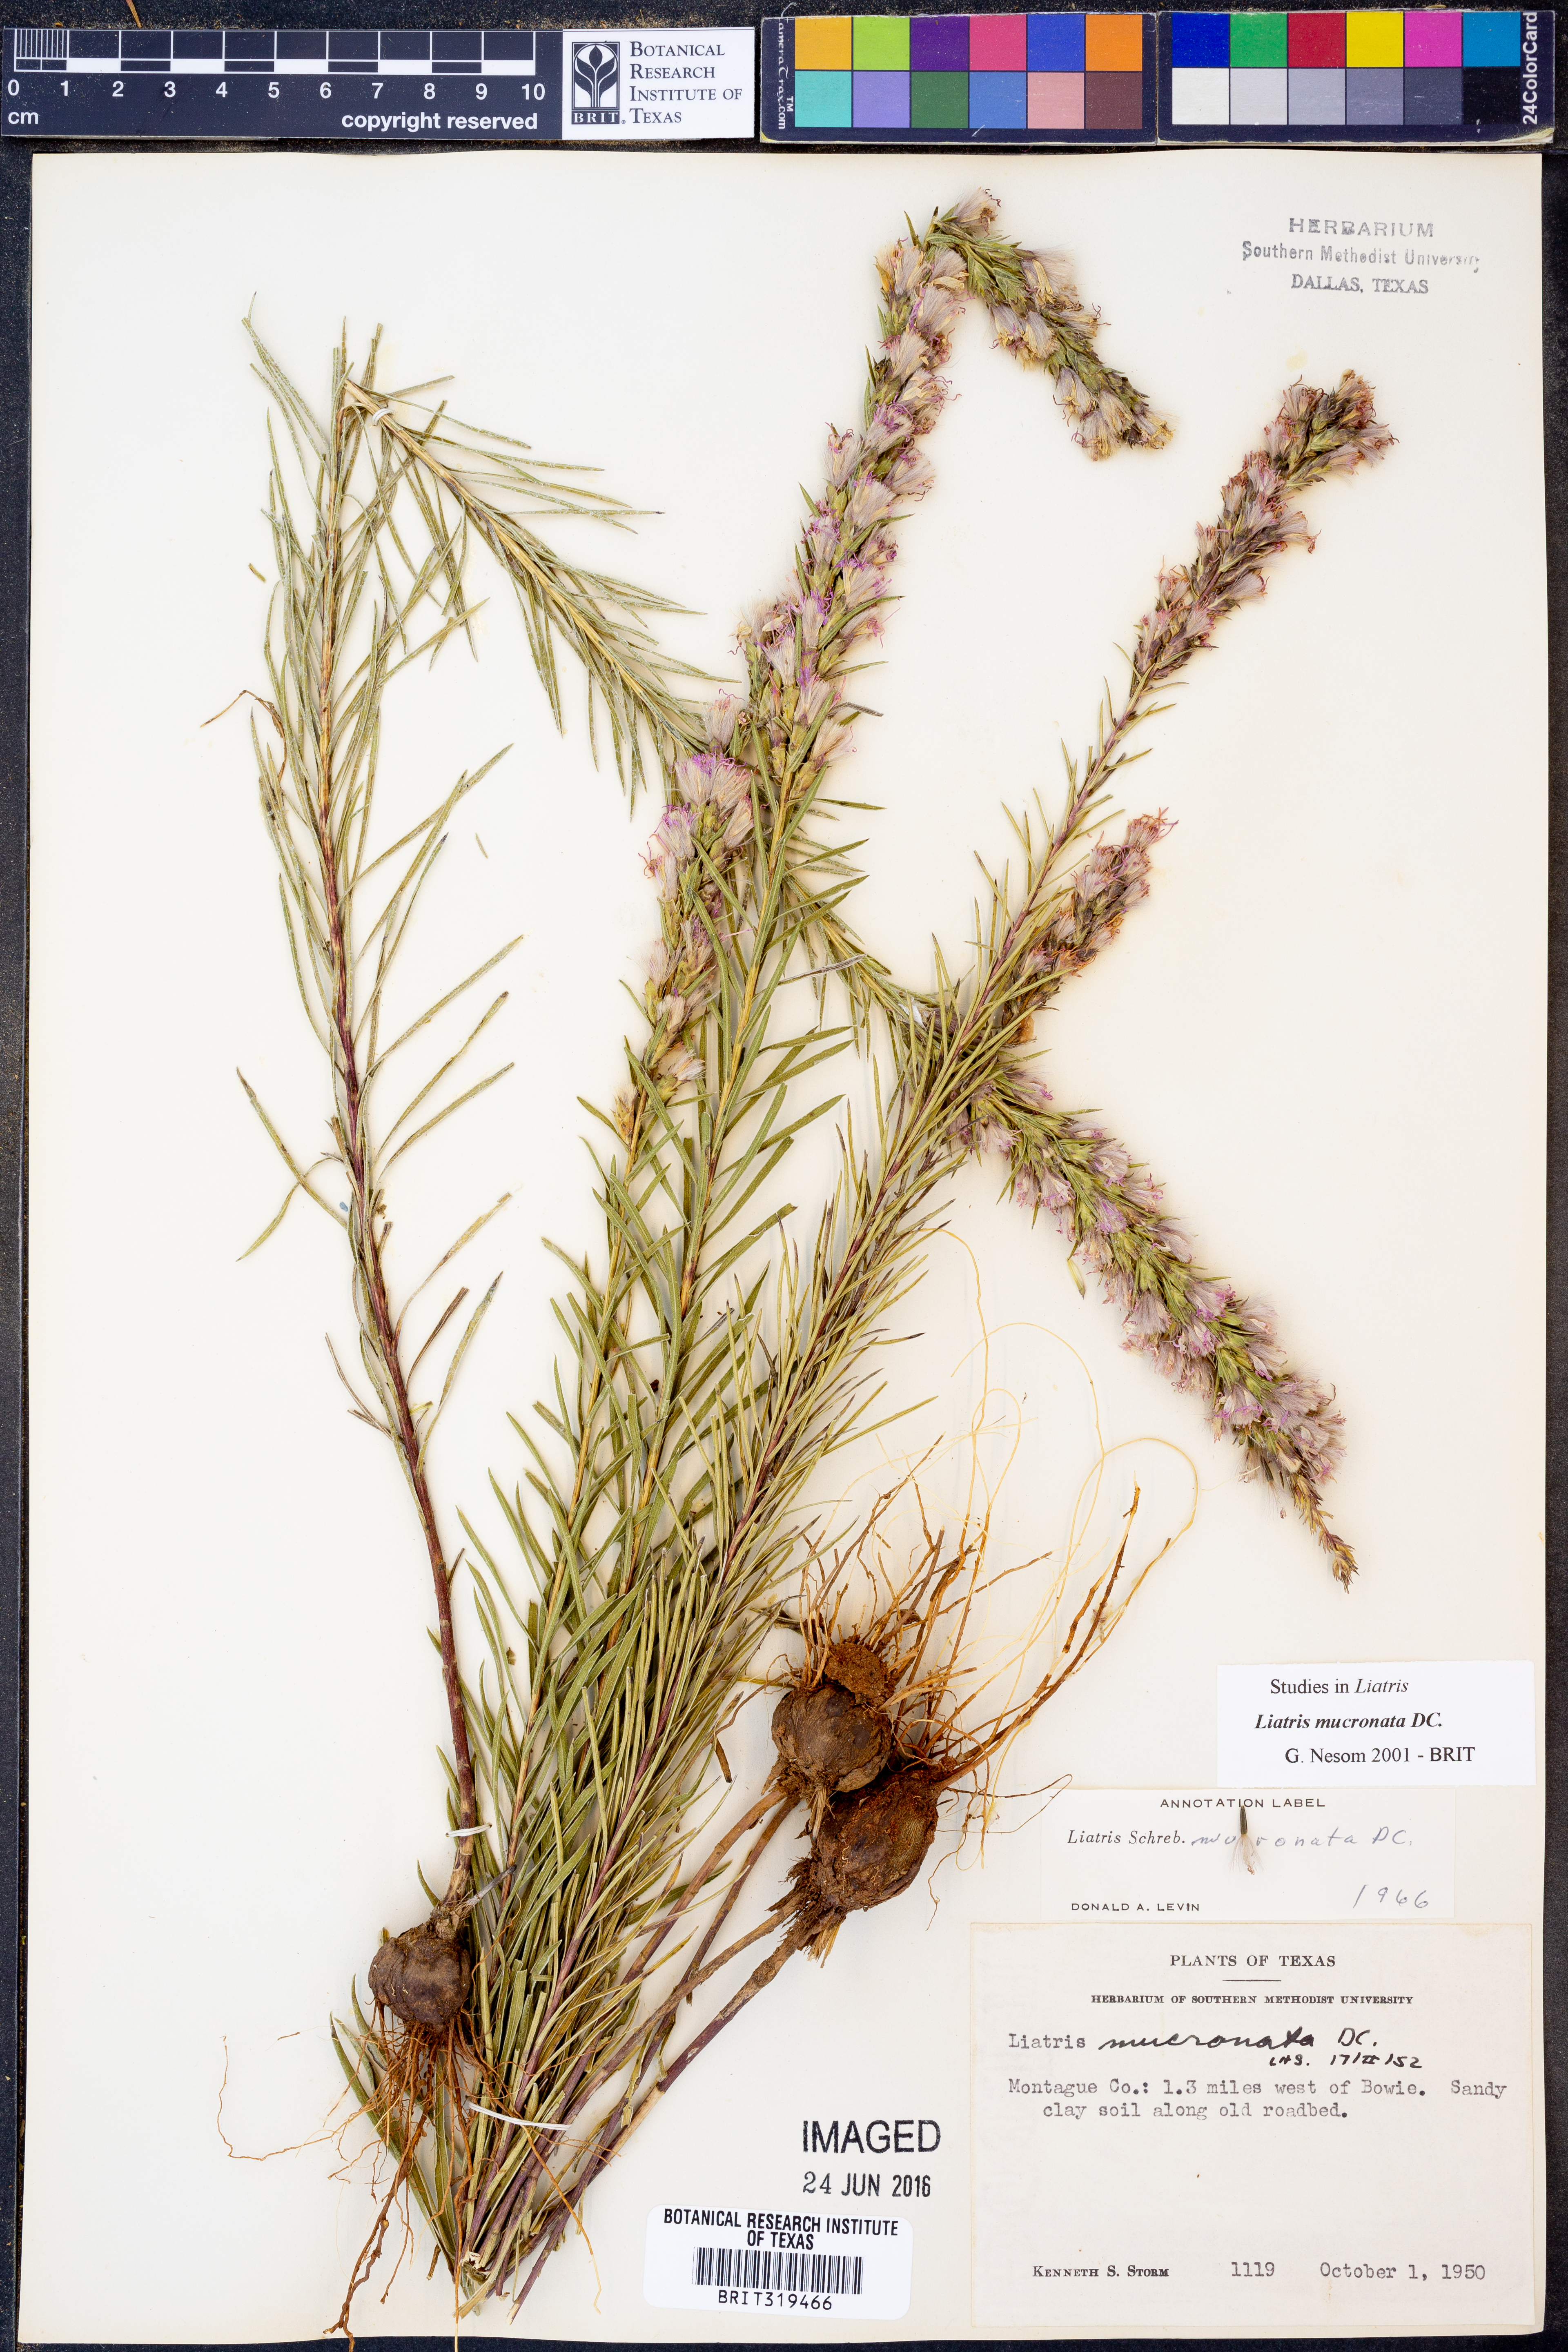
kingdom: Plantae
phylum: Tracheophyta
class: Magnoliopsida
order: Asterales
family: Asteraceae
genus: Liatris
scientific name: Liatris mucronata
